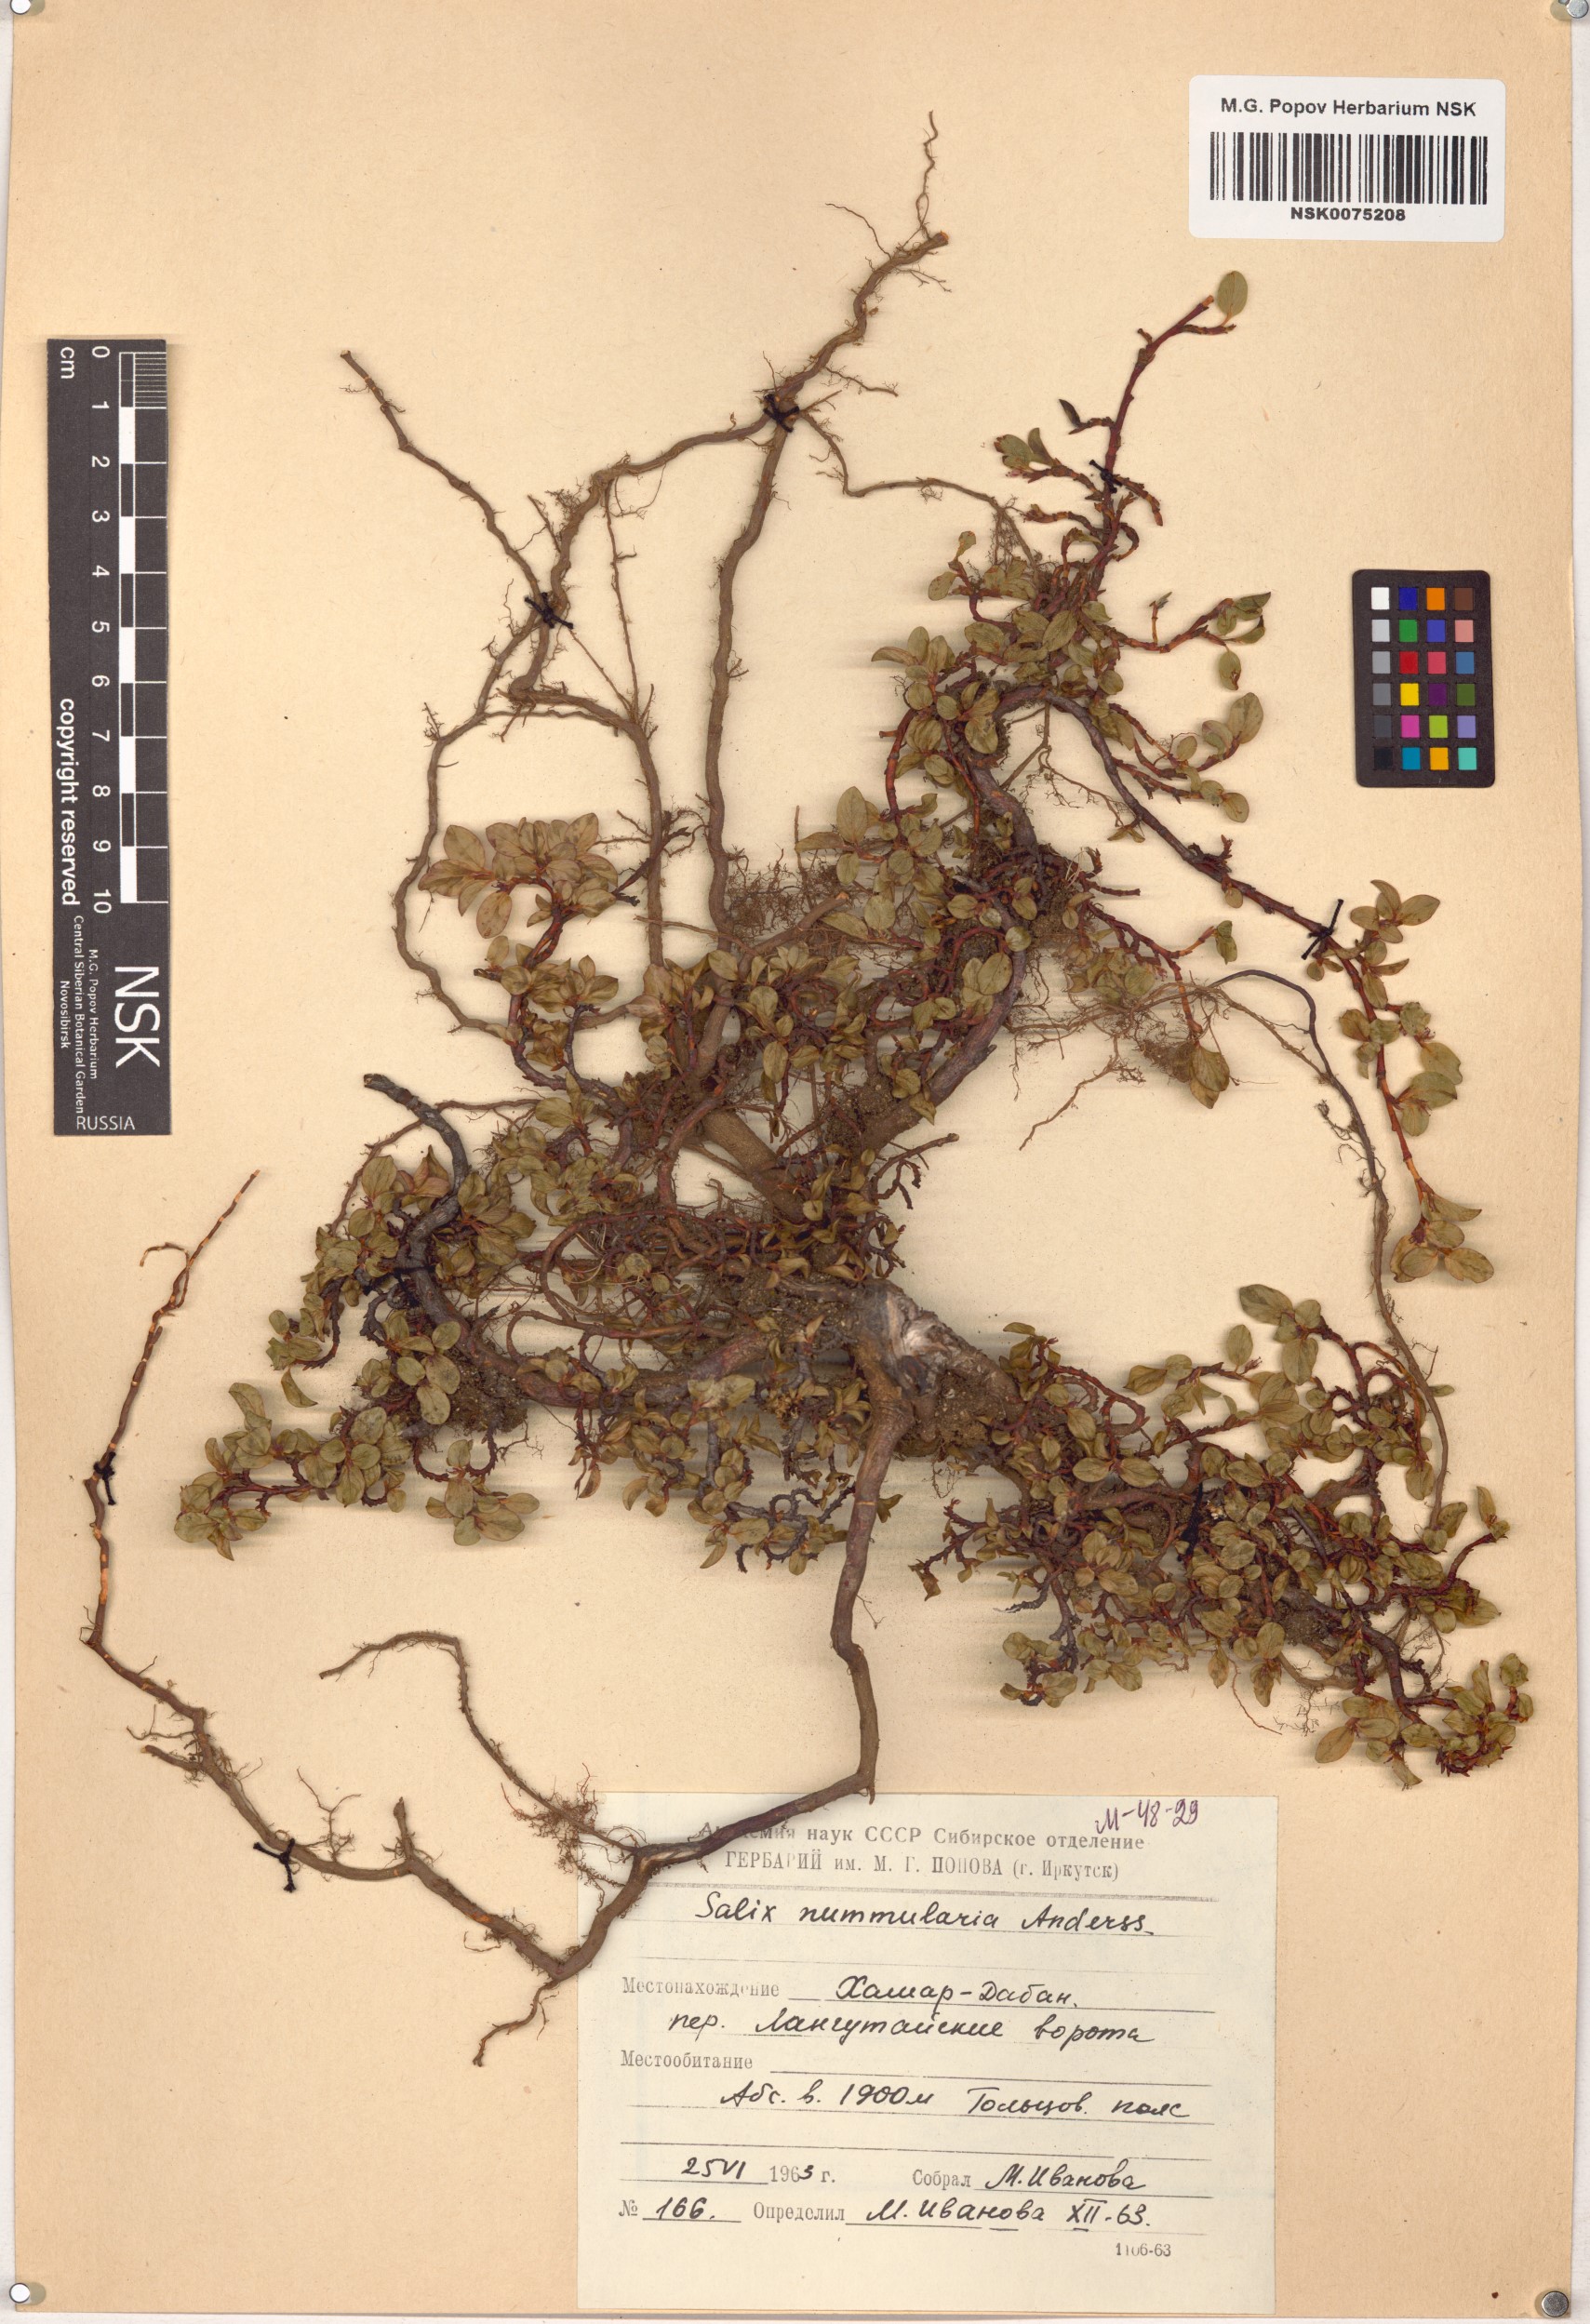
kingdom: Plantae
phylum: Tracheophyta
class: Magnoliopsida
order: Malpighiales
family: Salicaceae
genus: Salix
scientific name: Salix nummularia
